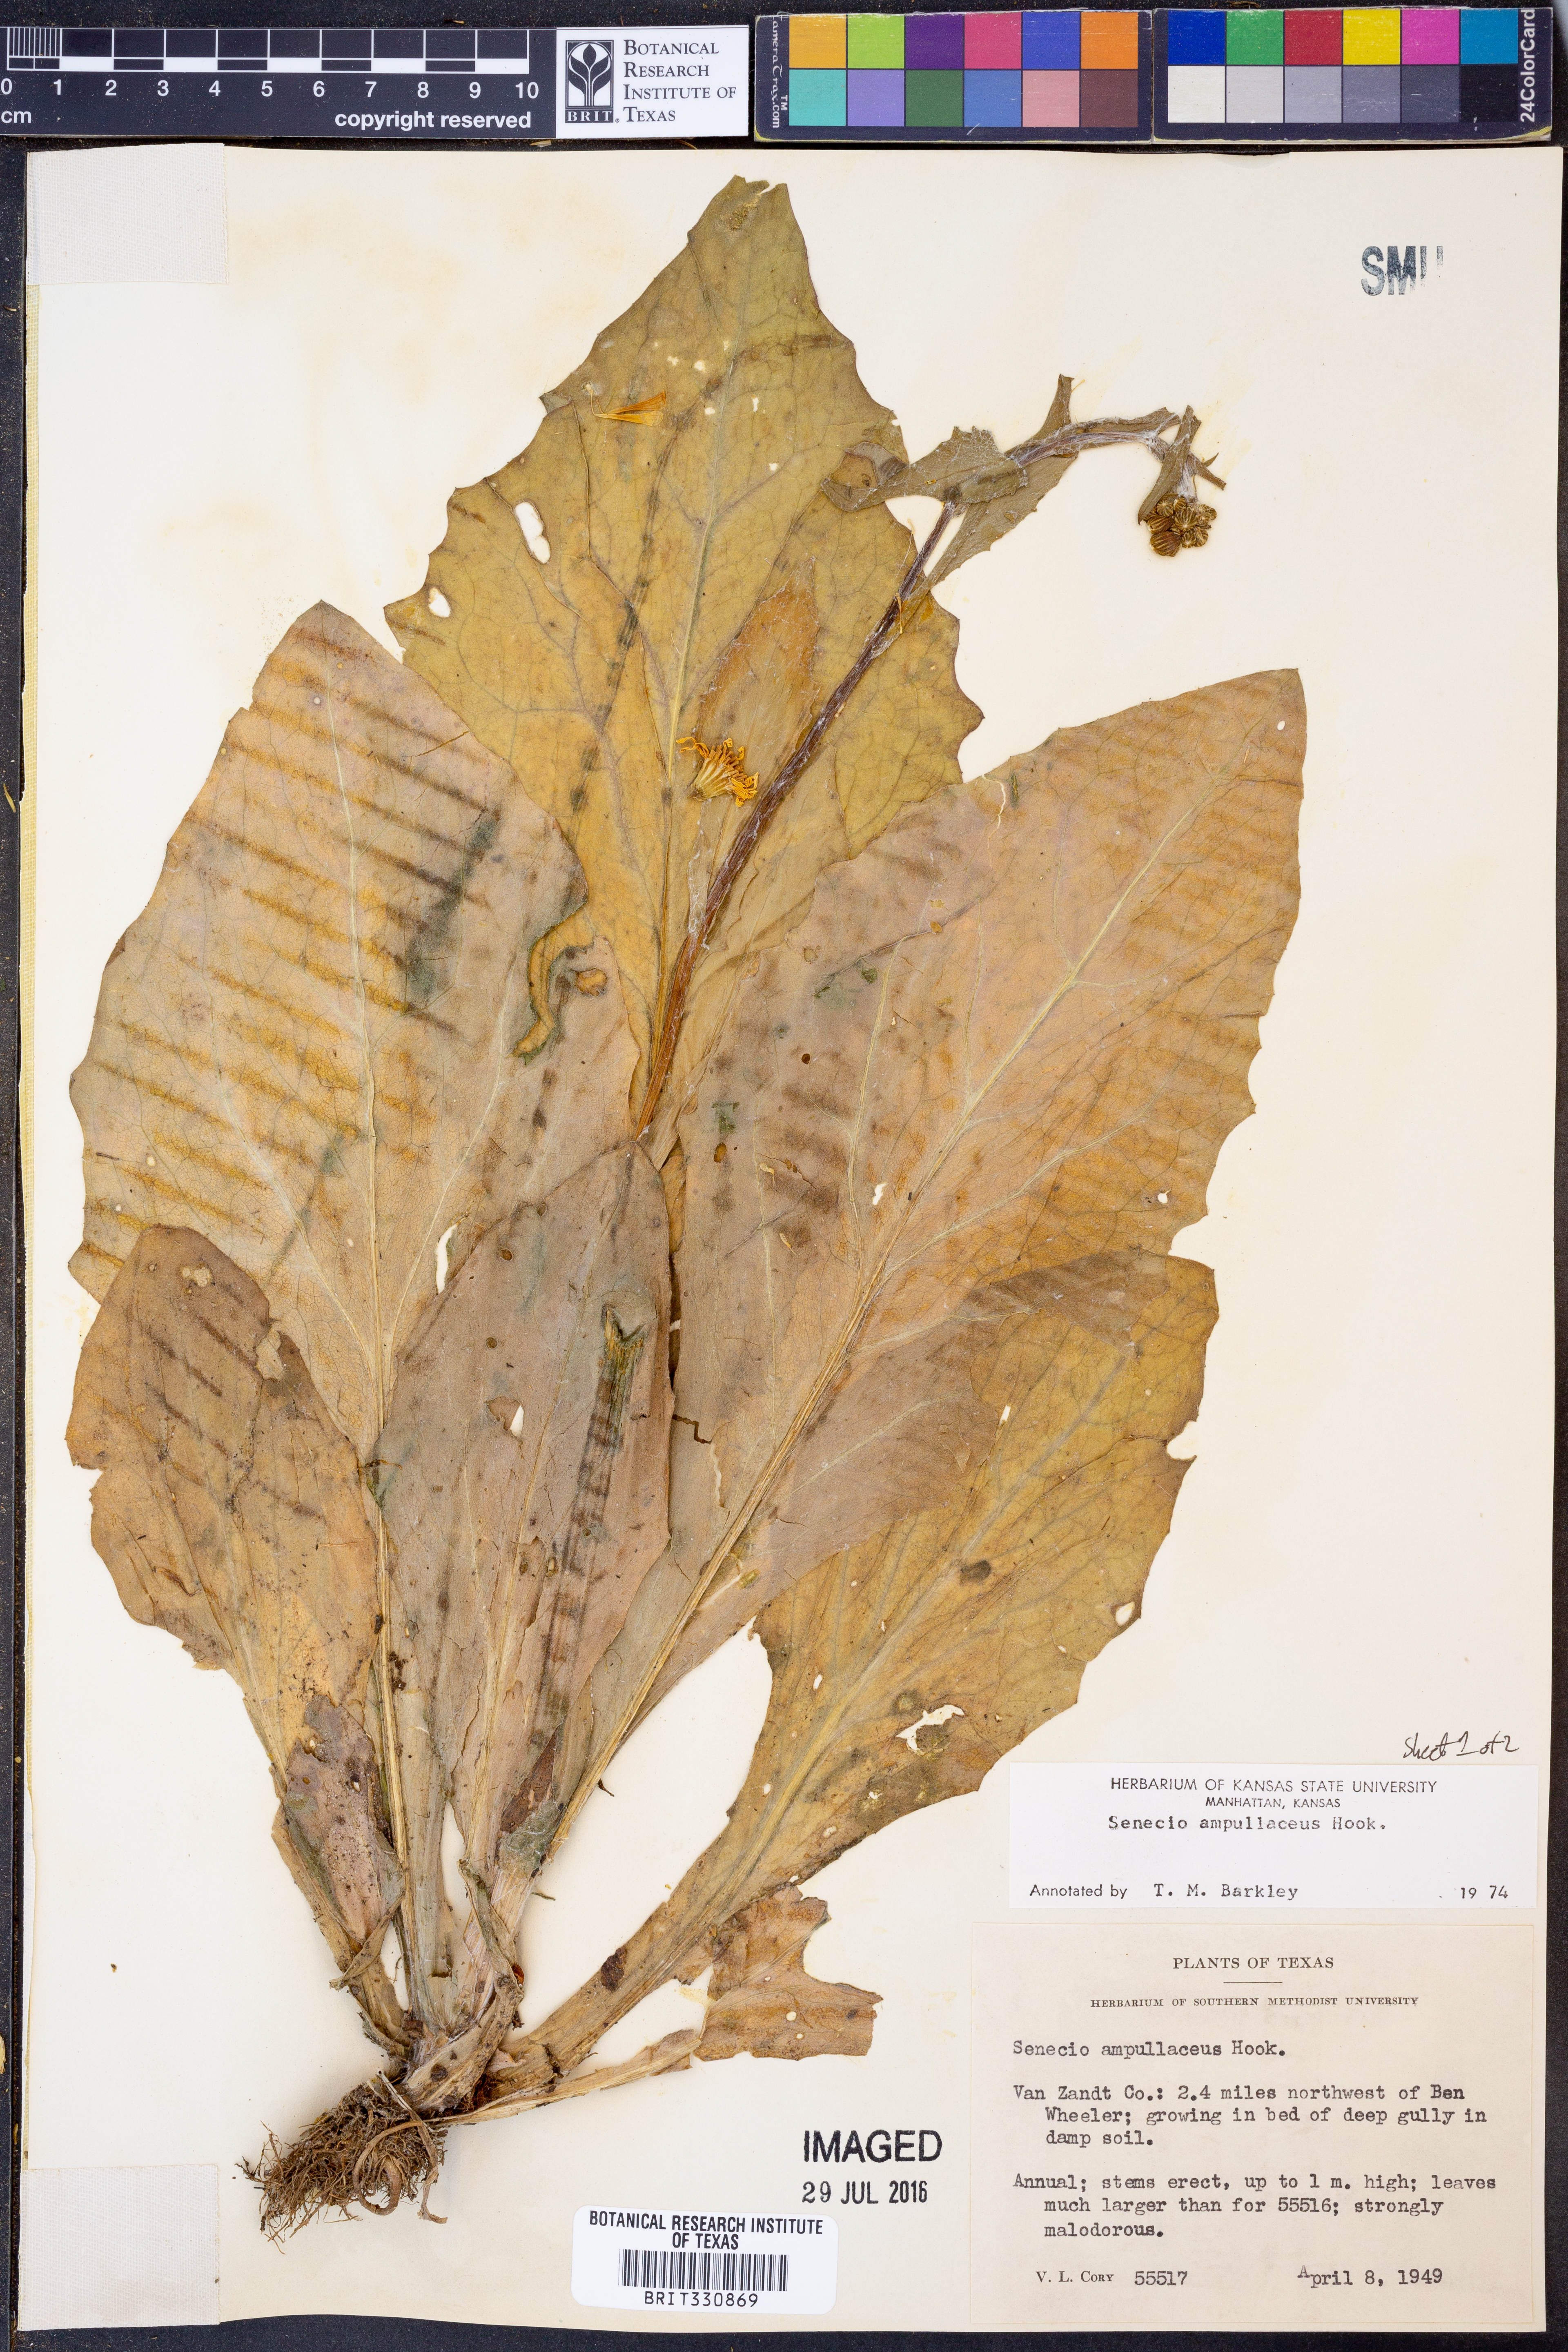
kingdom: Plantae
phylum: Tracheophyta
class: Magnoliopsida
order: Asterales
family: Asteraceae
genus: Senecio
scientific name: Senecio ampullaceus
